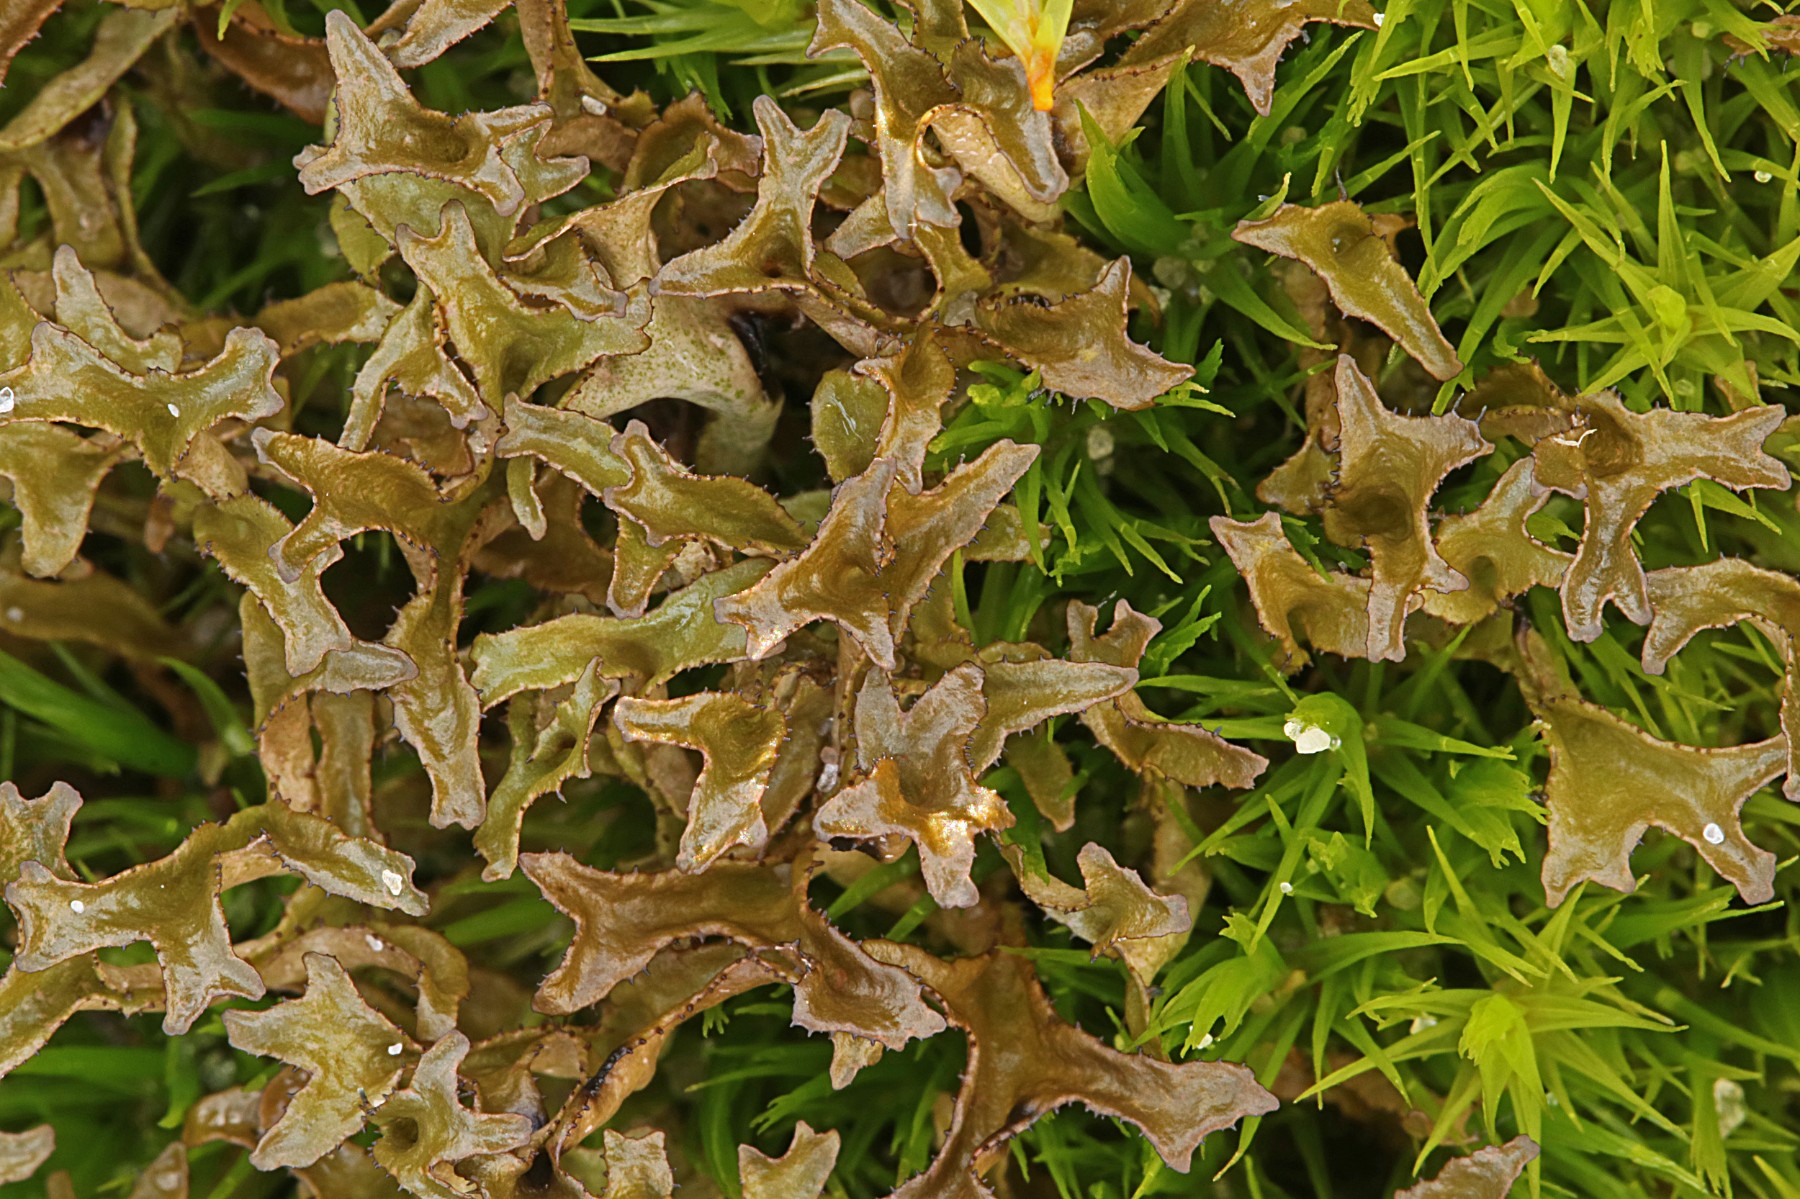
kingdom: Fungi
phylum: Ascomycota
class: Lecanoromycetes
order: Lecanorales
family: Parmeliaceae
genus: Cetraria
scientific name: Cetraria islandica
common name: islandsk kruslav
